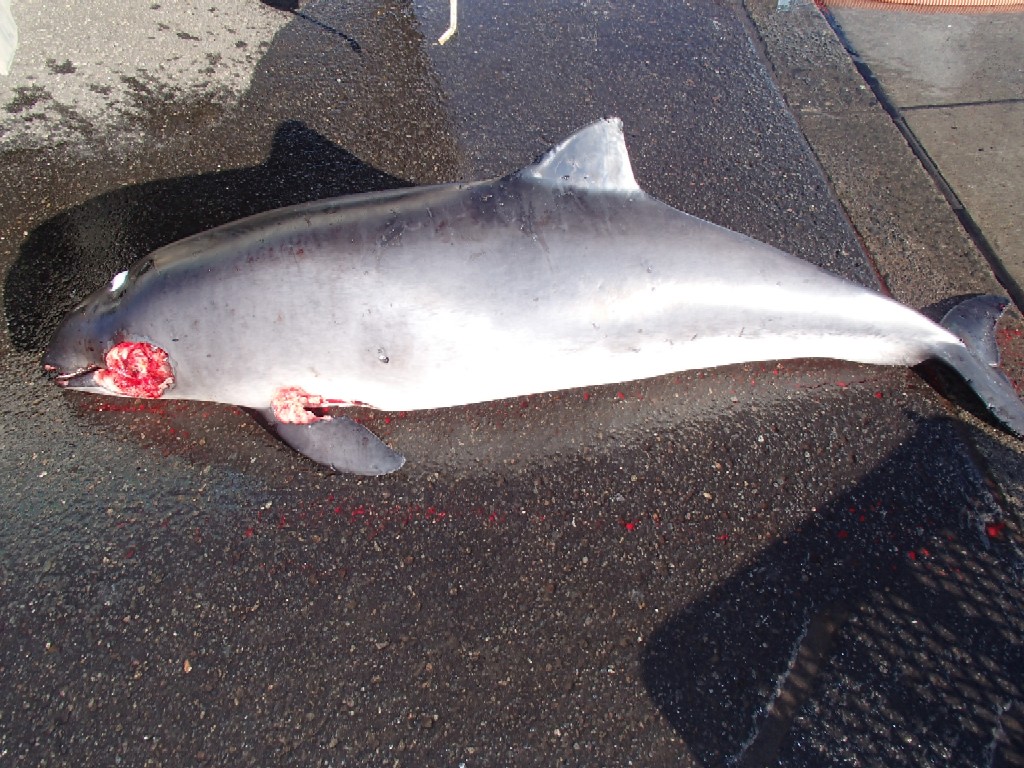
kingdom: Animalia
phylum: Chordata
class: Mammalia
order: Cetacea
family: Phocoenidae
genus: Phocoena
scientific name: Phocoena phocoena
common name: Harbour porpoise
